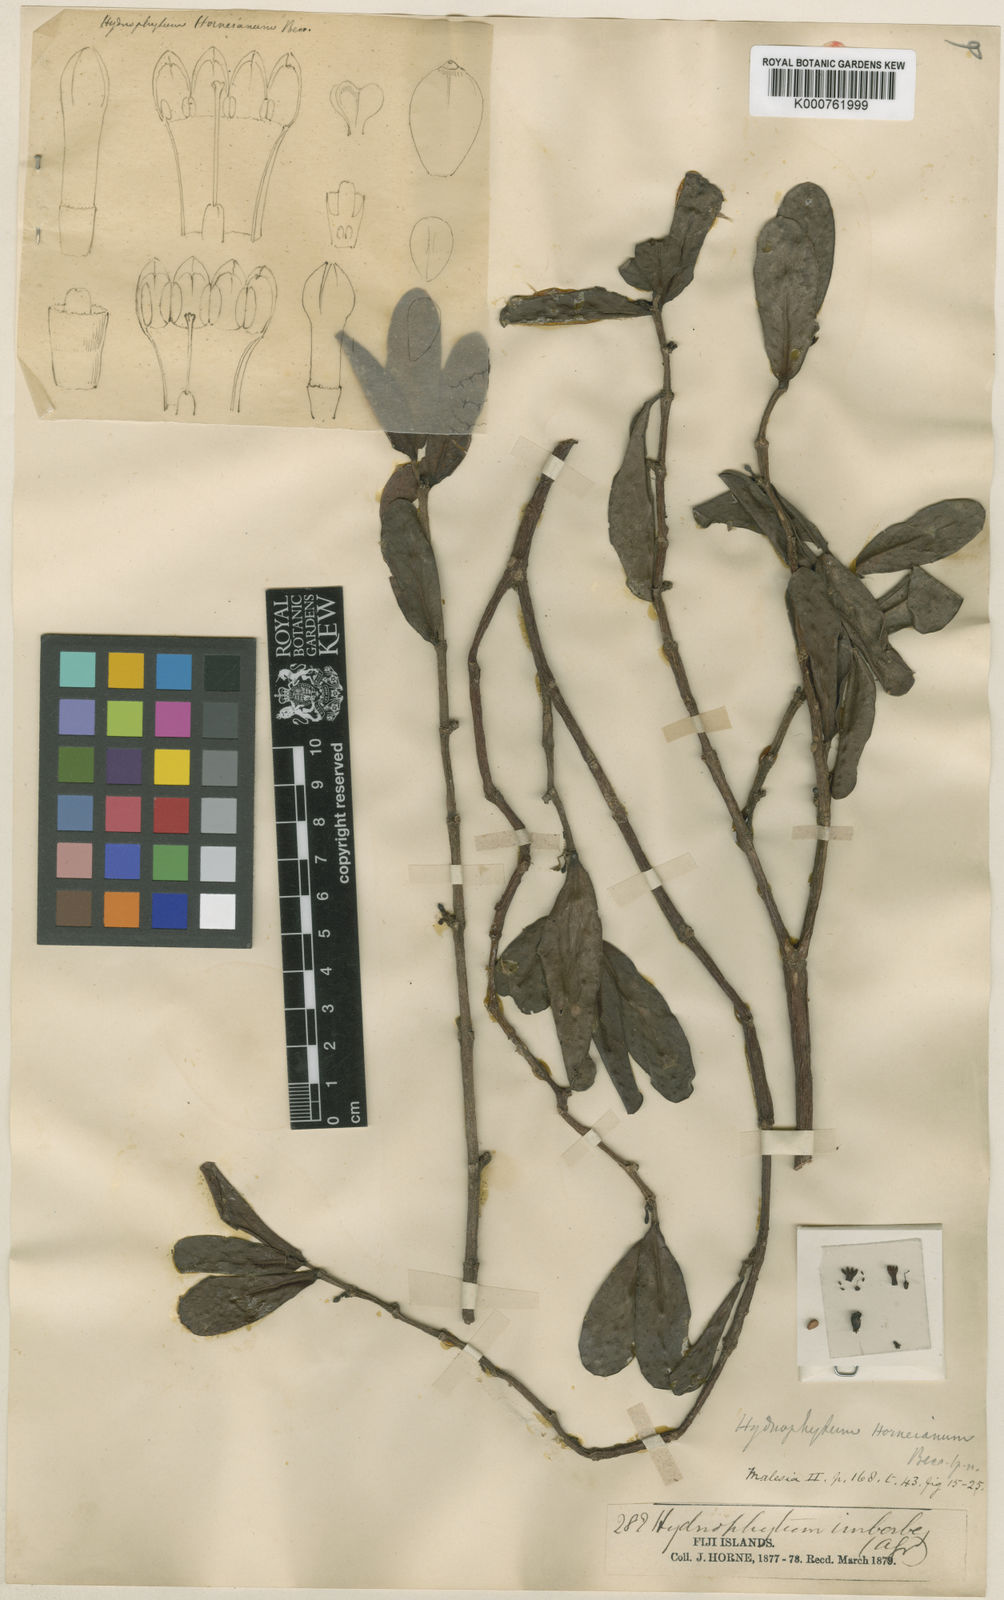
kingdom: Plantae
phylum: Tracheophyta
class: Magnoliopsida
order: Gentianales
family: Rubiaceae
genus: Hydnophytum
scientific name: Hydnophytum longiflorum
